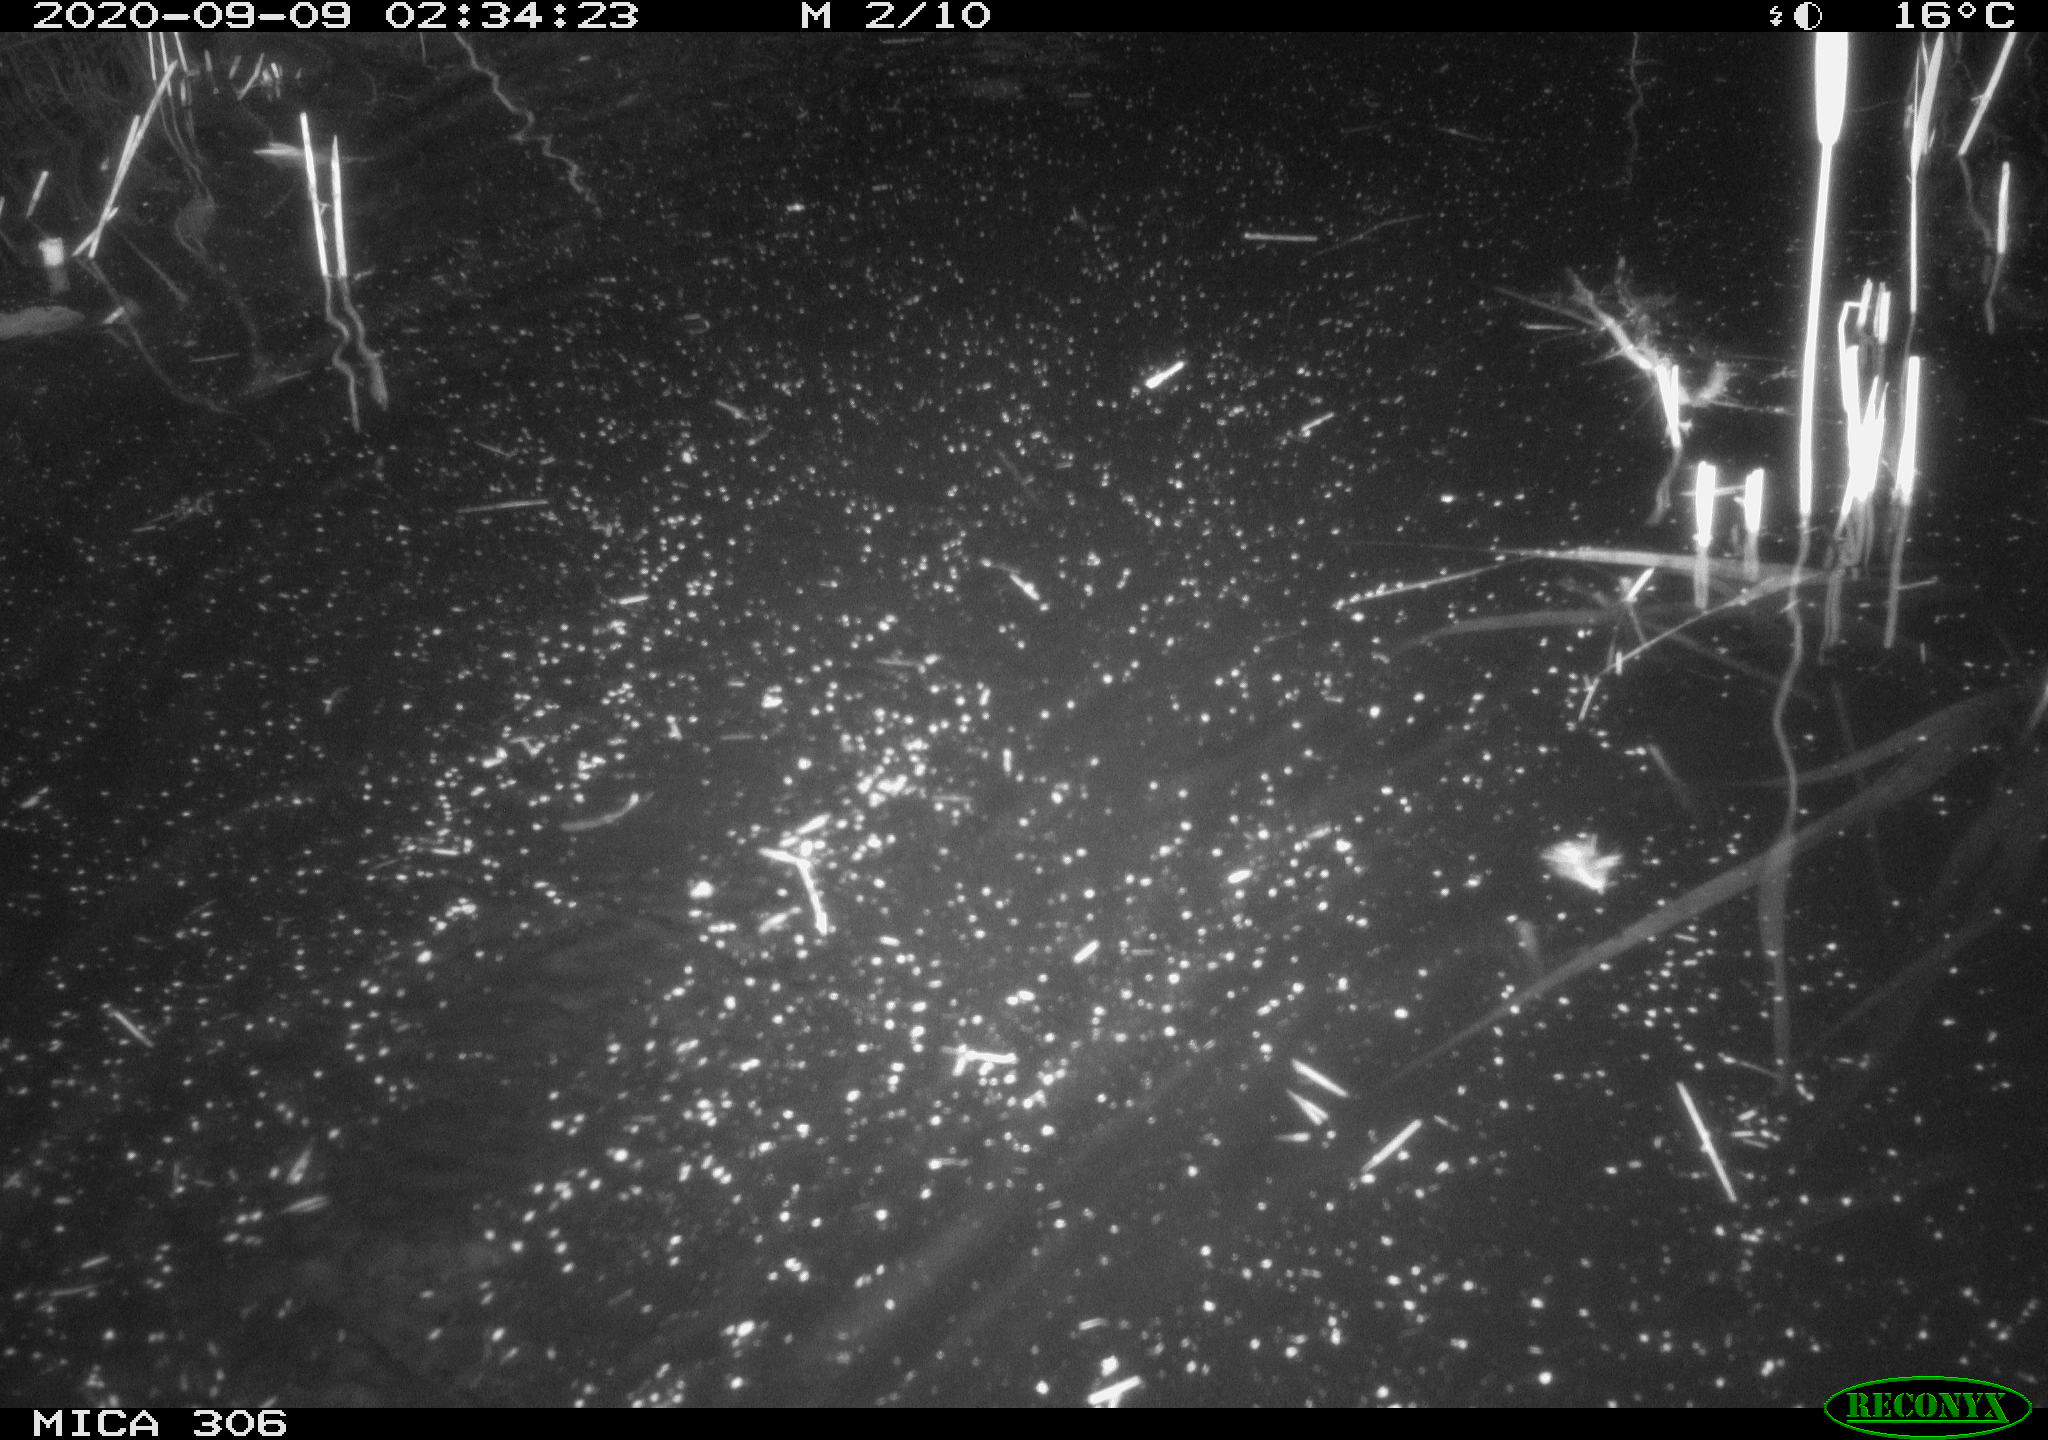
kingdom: Animalia
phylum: Chordata
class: Mammalia
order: Rodentia
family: Cricetidae
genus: Ondatra
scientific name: Ondatra zibethicus
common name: Muskrat
